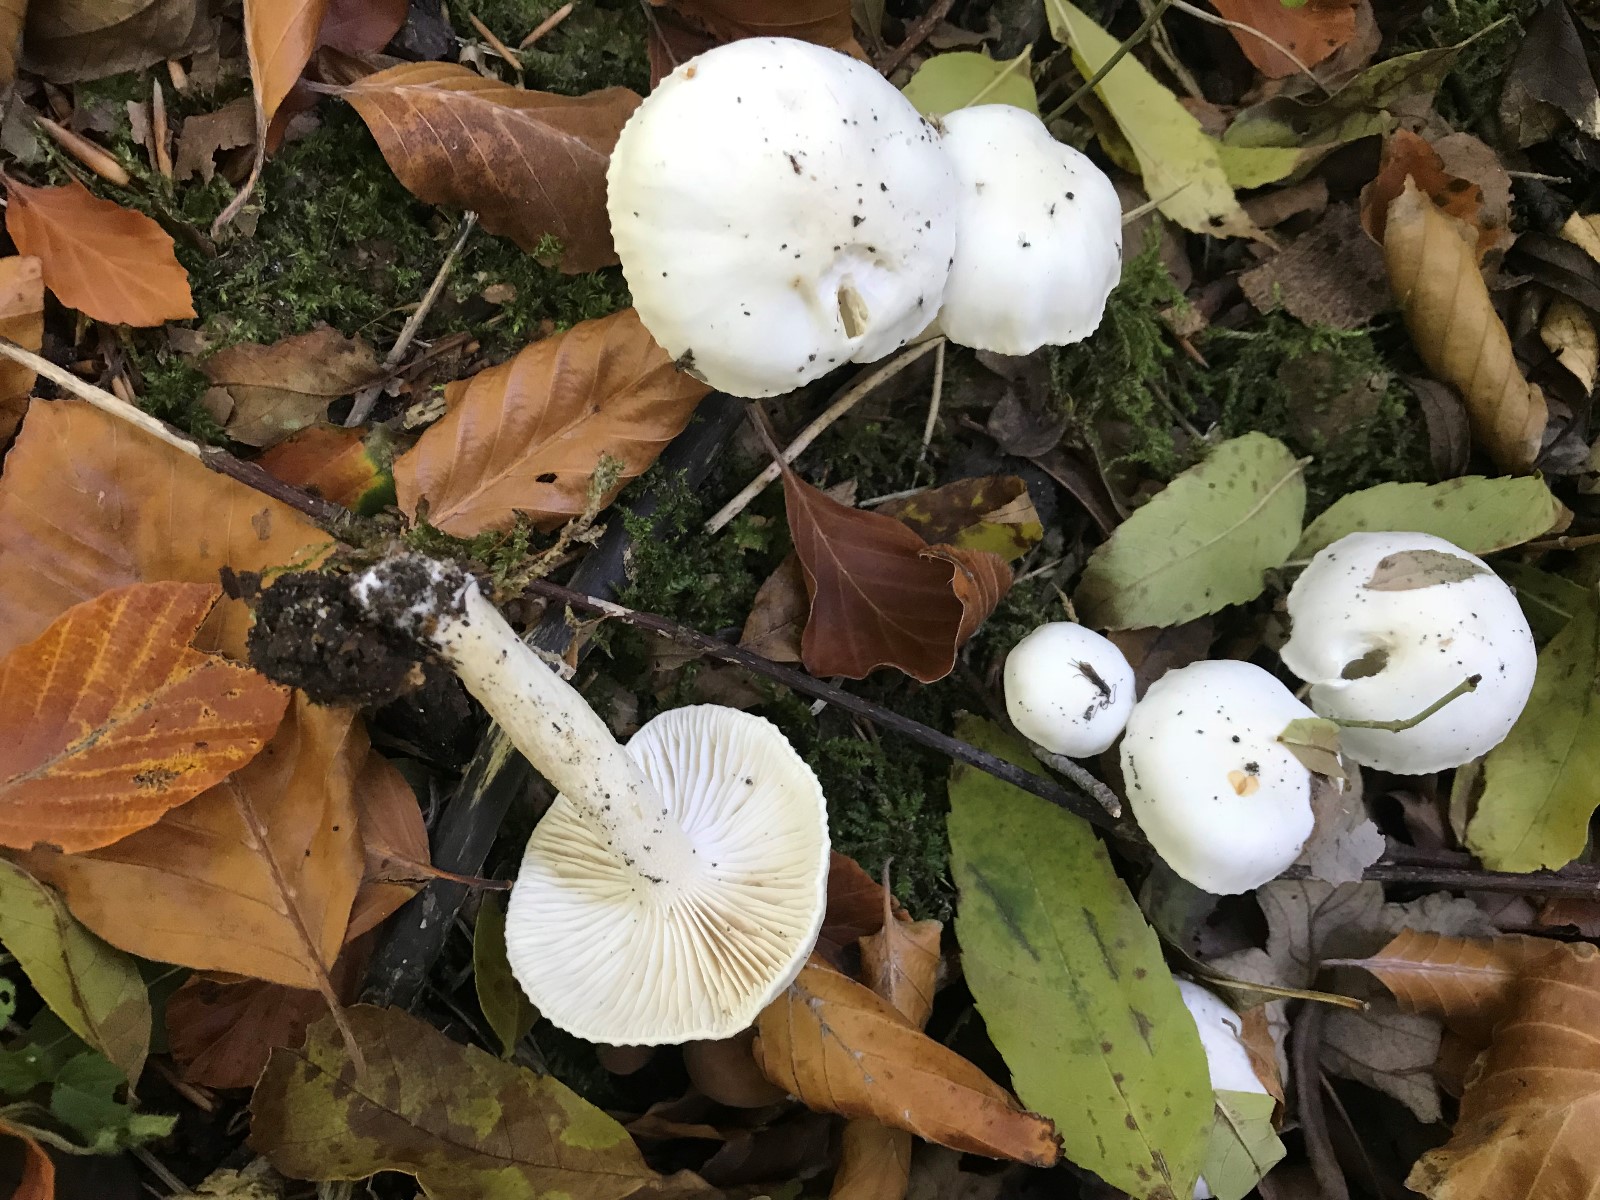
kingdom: Fungi
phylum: Basidiomycota
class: Agaricomycetes
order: Agaricales
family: Hygrophoraceae
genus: Hygrophorus
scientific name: Hygrophorus eburneus
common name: elfenbens-sneglehat
